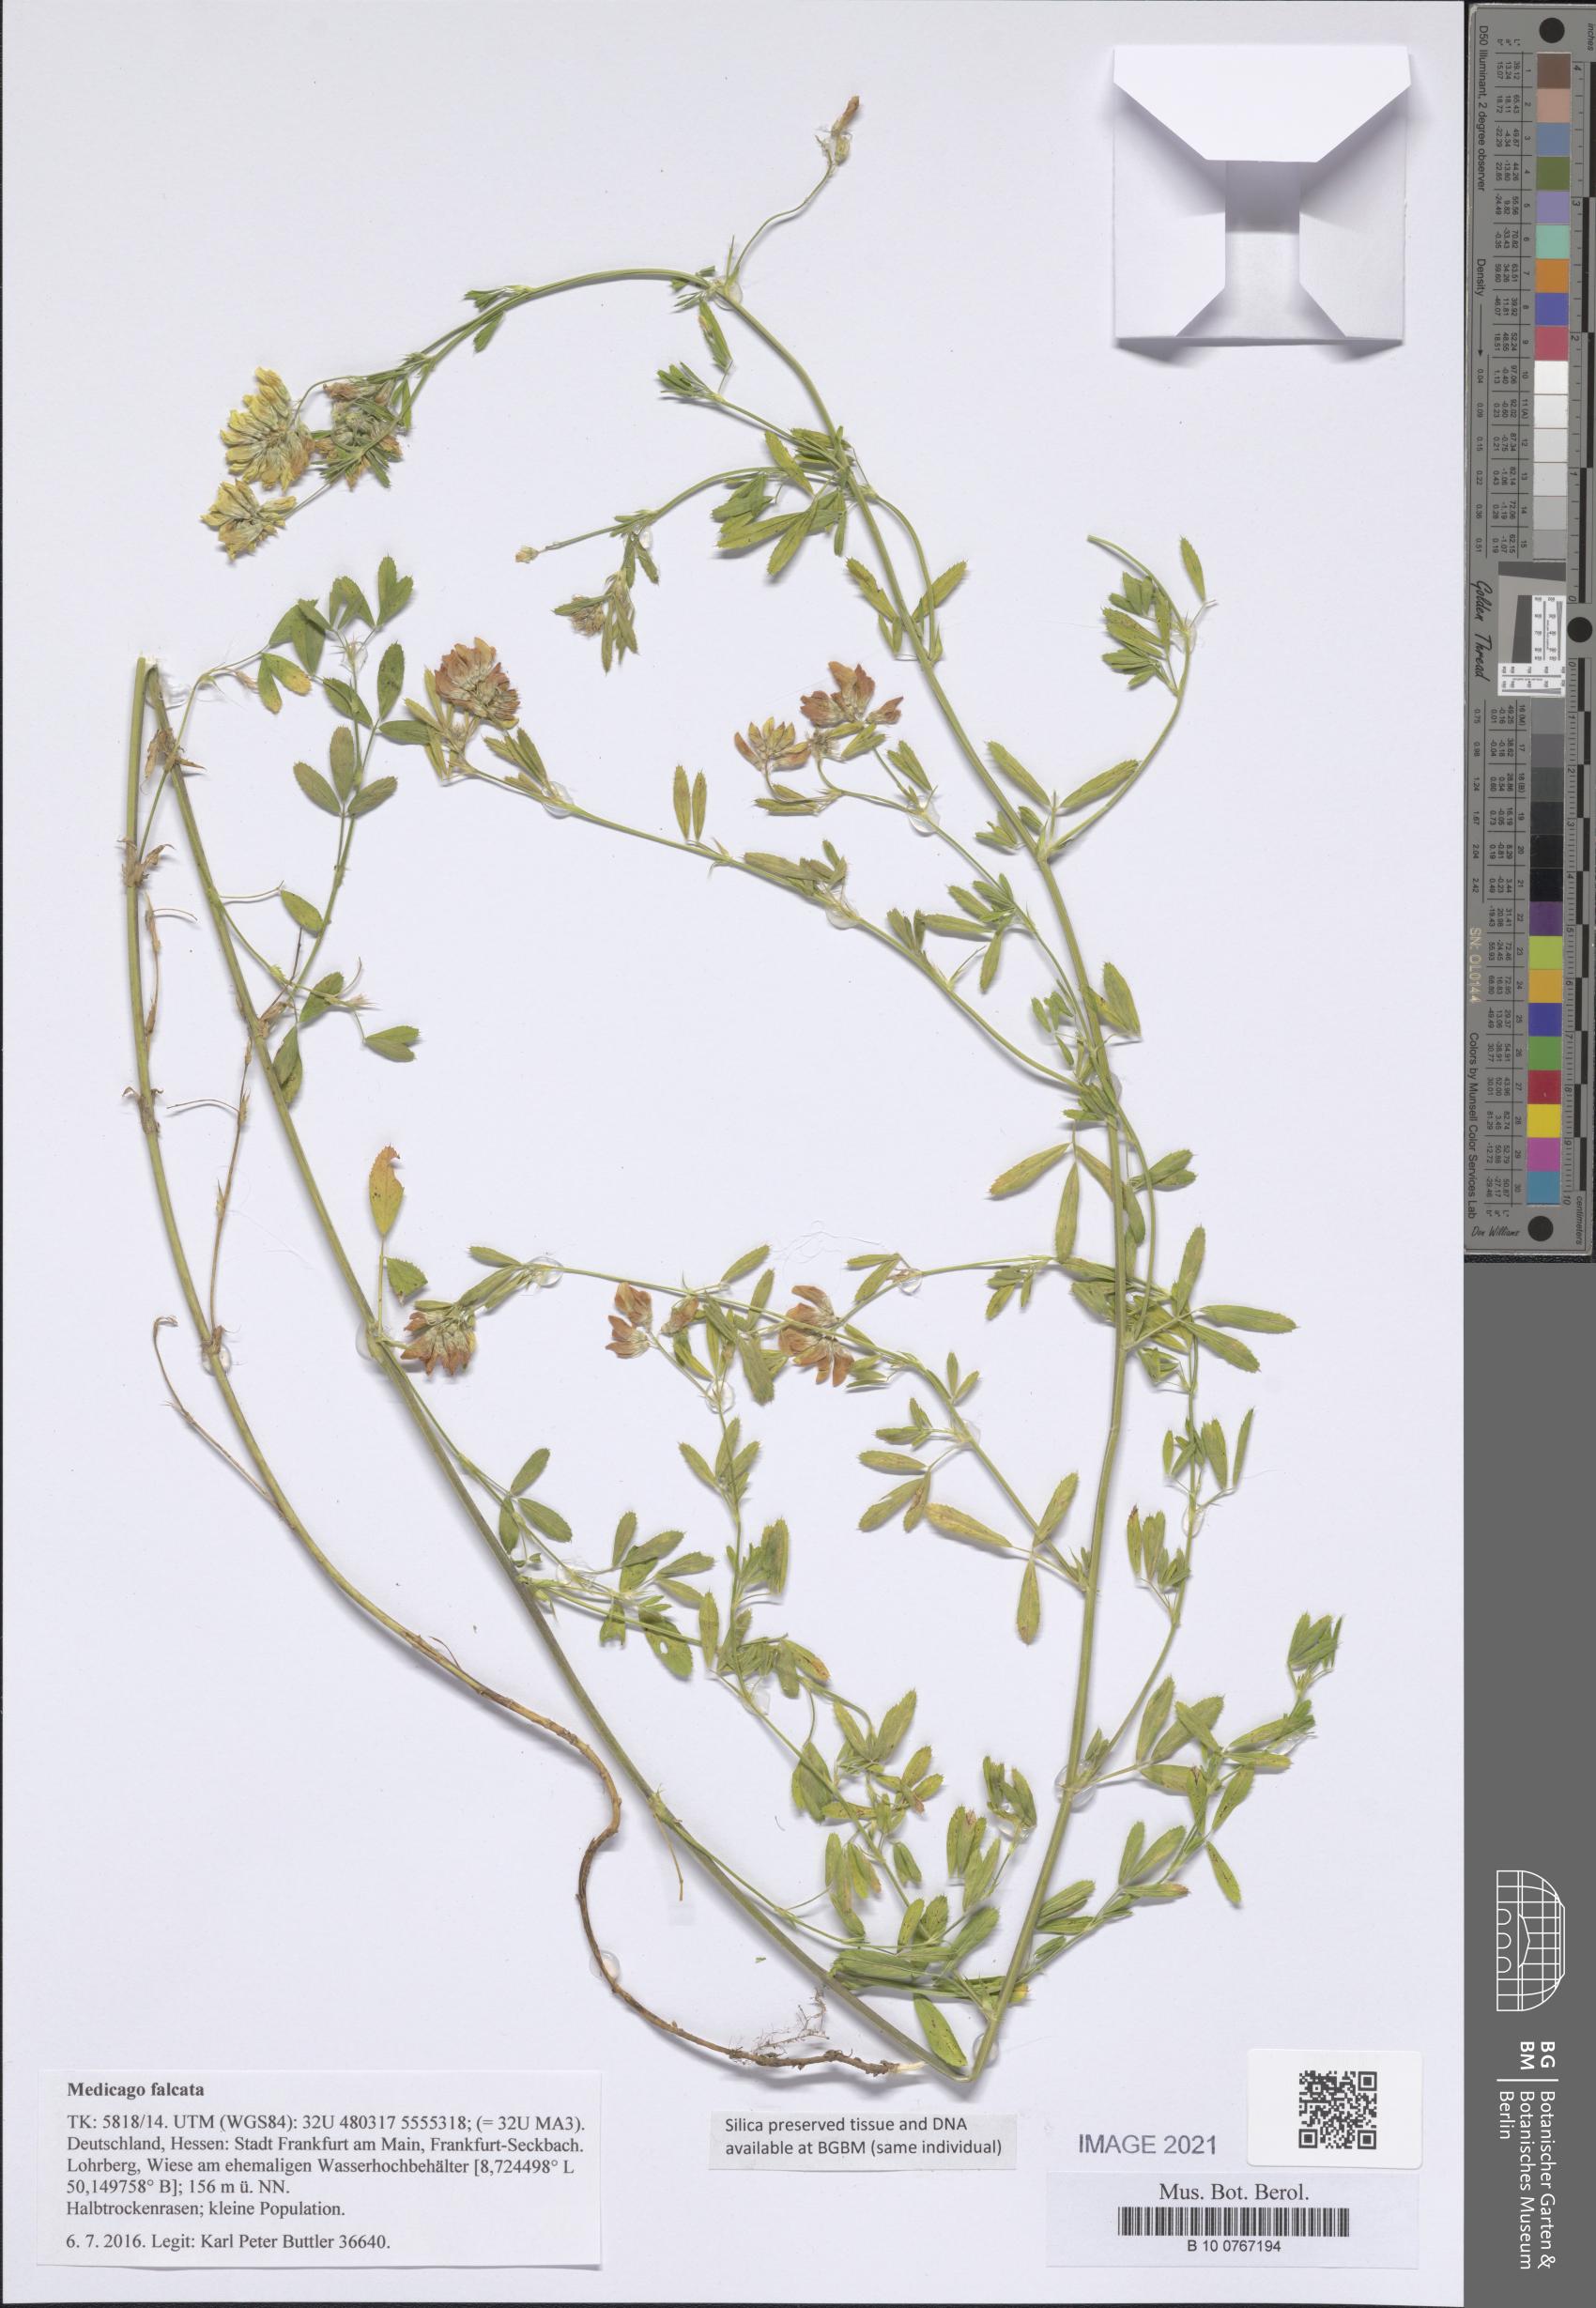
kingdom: Plantae
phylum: Tracheophyta
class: Magnoliopsida
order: Fabales
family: Fabaceae
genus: Medicago
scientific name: Medicago falcata
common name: Sickle medick
